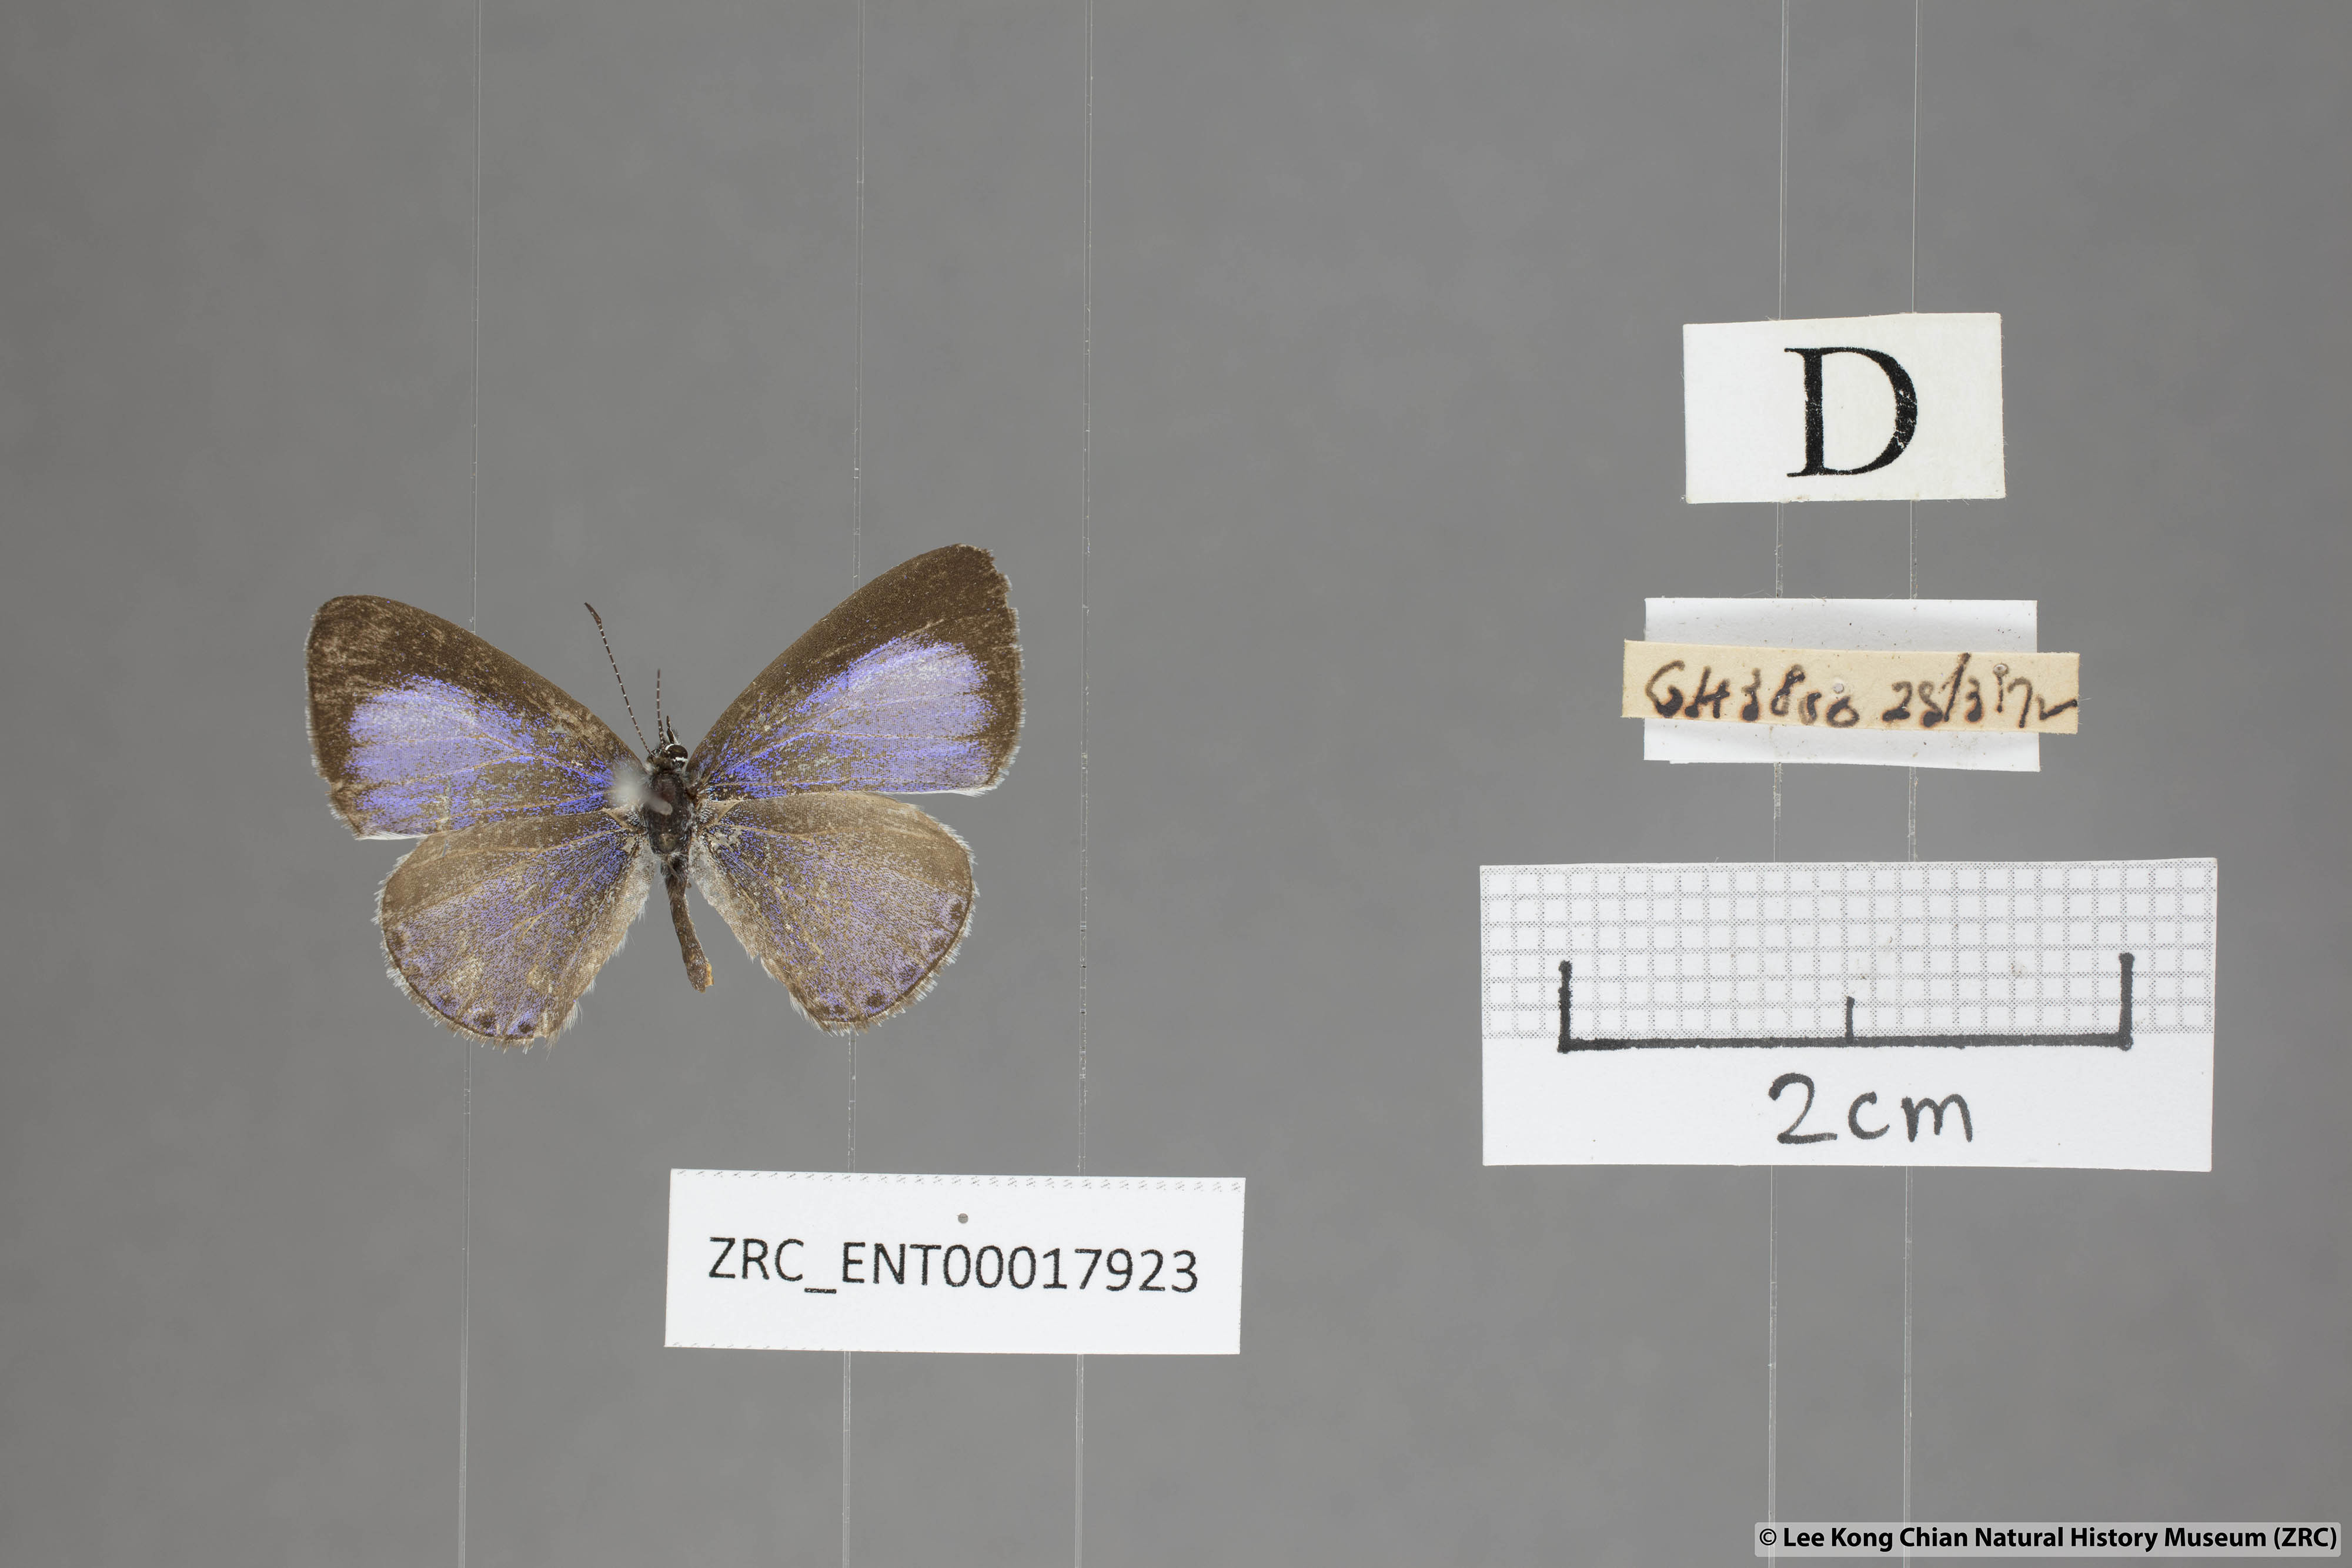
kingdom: Animalia
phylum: Arthropoda
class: Insecta
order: Lepidoptera
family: Lycaenidae
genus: Udara
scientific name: Udara
